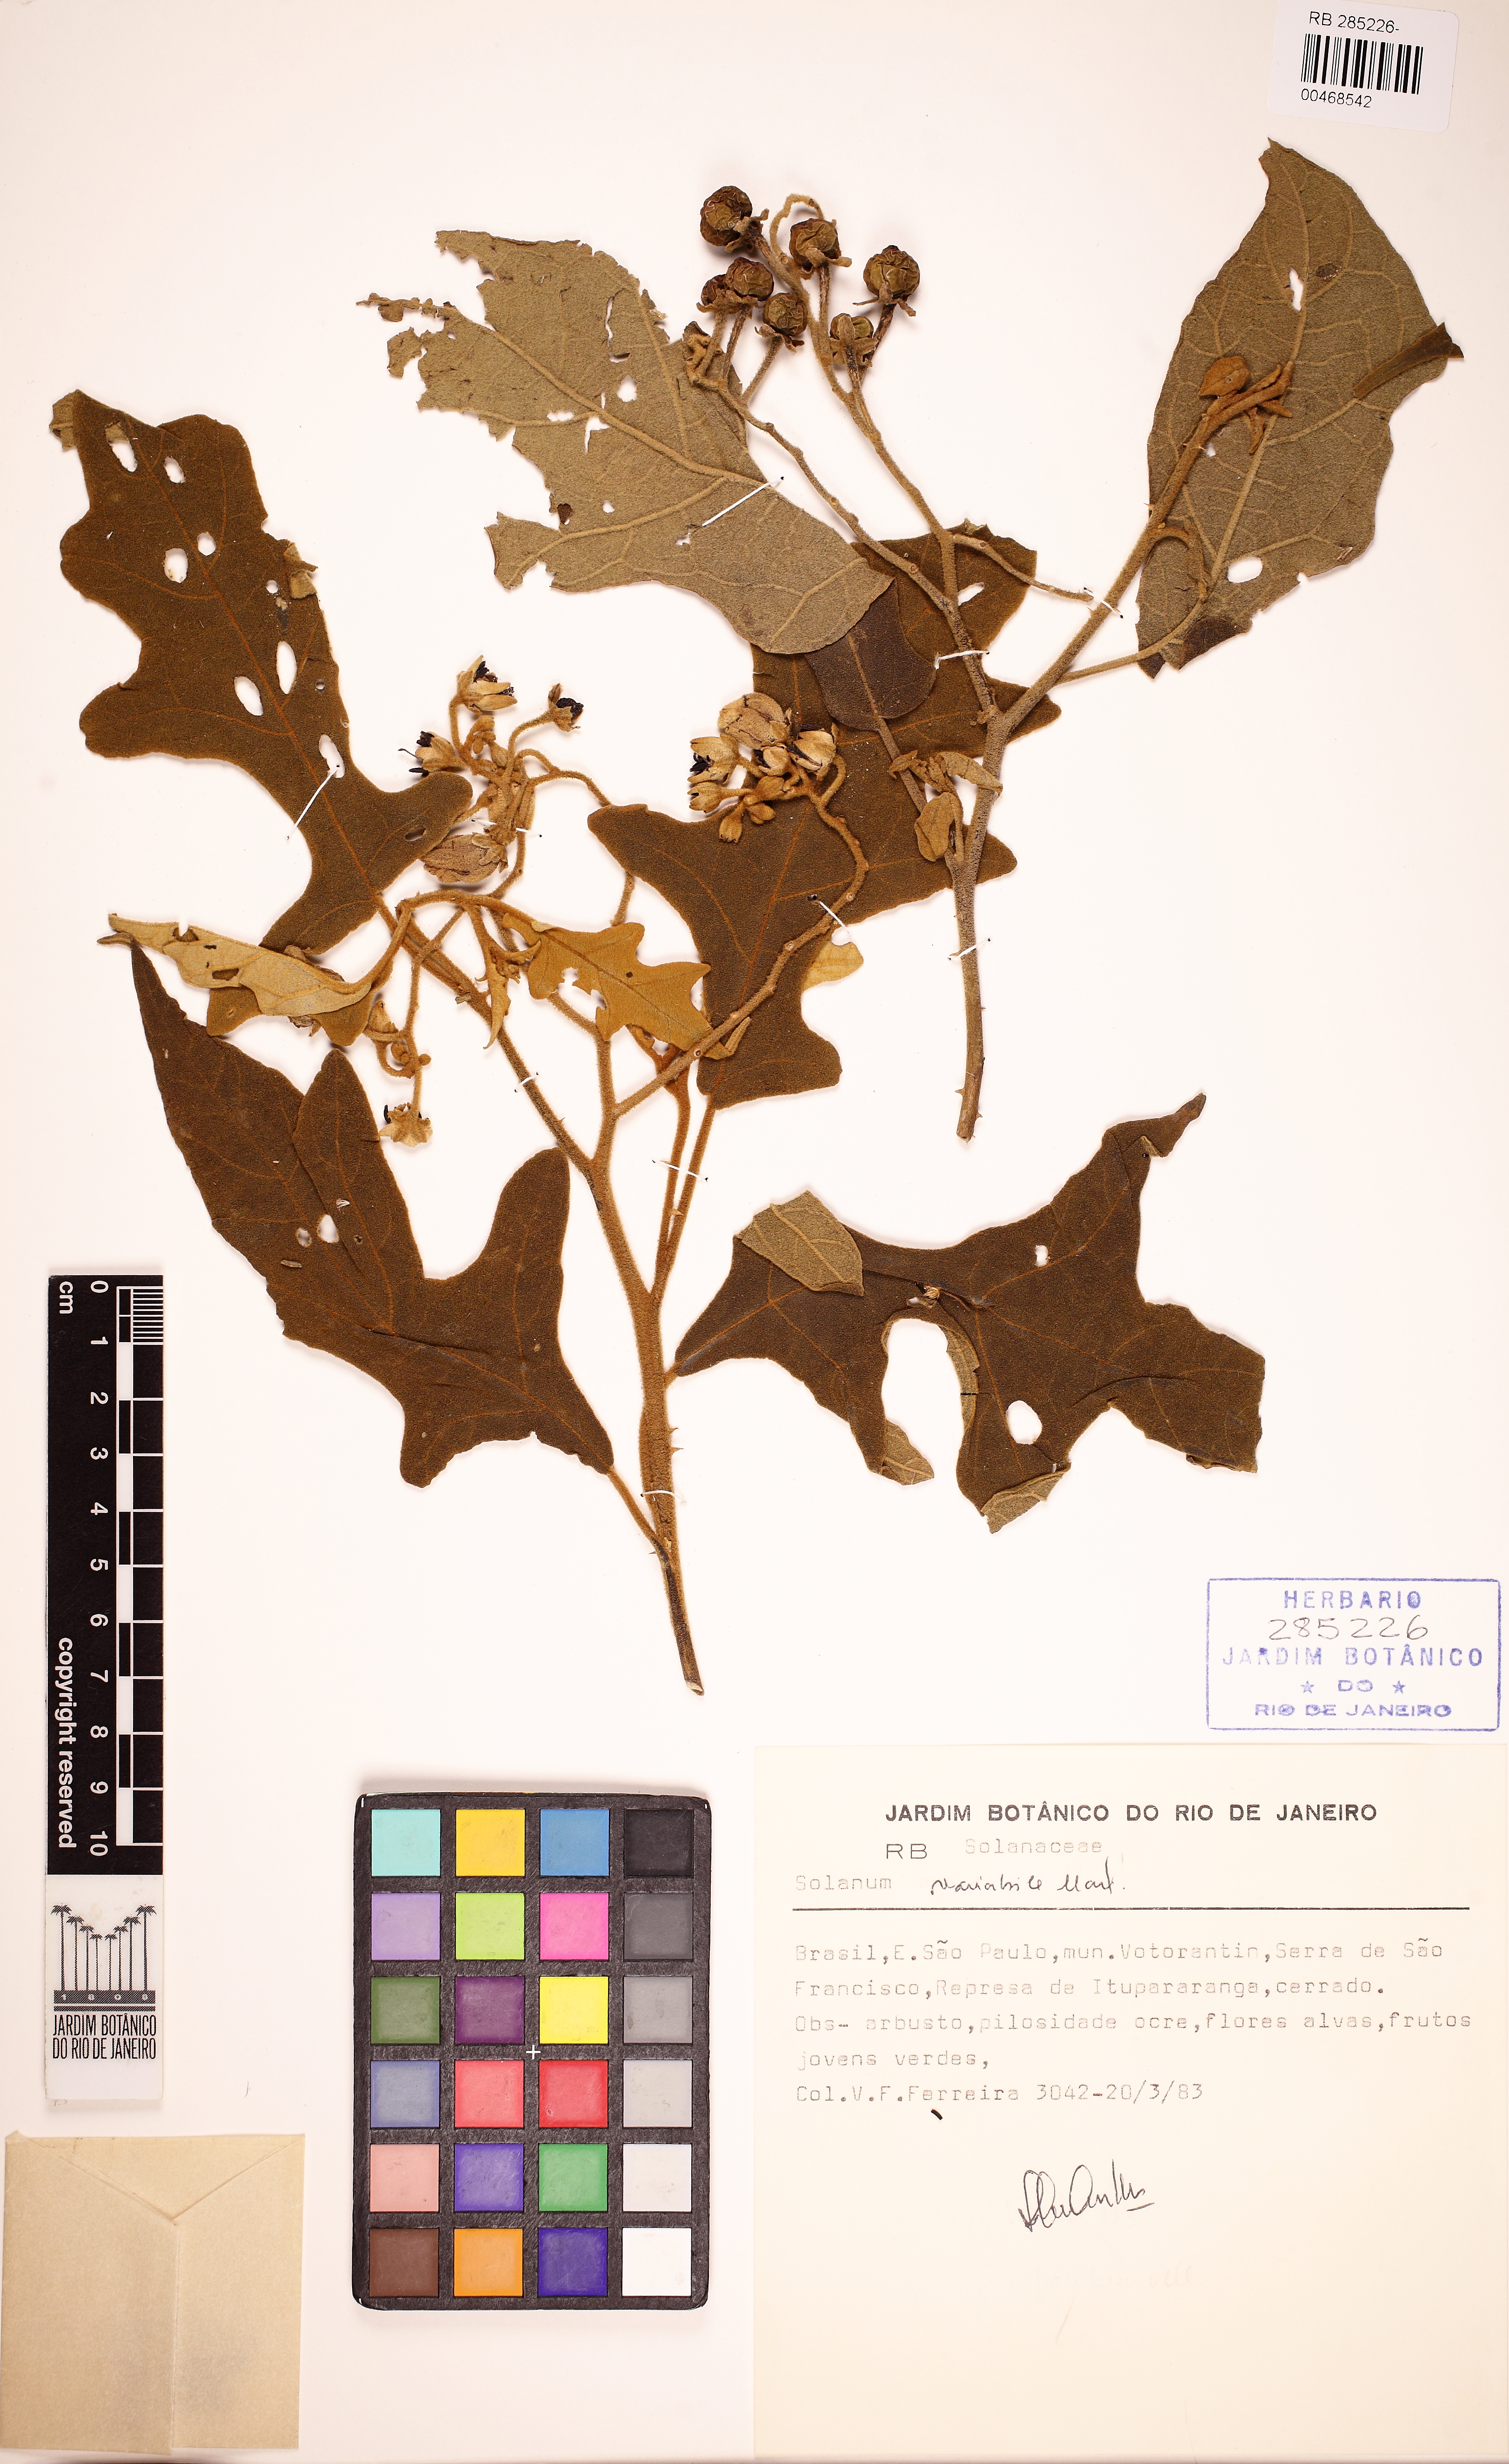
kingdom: Plantae
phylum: Tracheophyta
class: Magnoliopsida
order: Solanales
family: Solanaceae
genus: Solanum
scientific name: Solanum variabile
